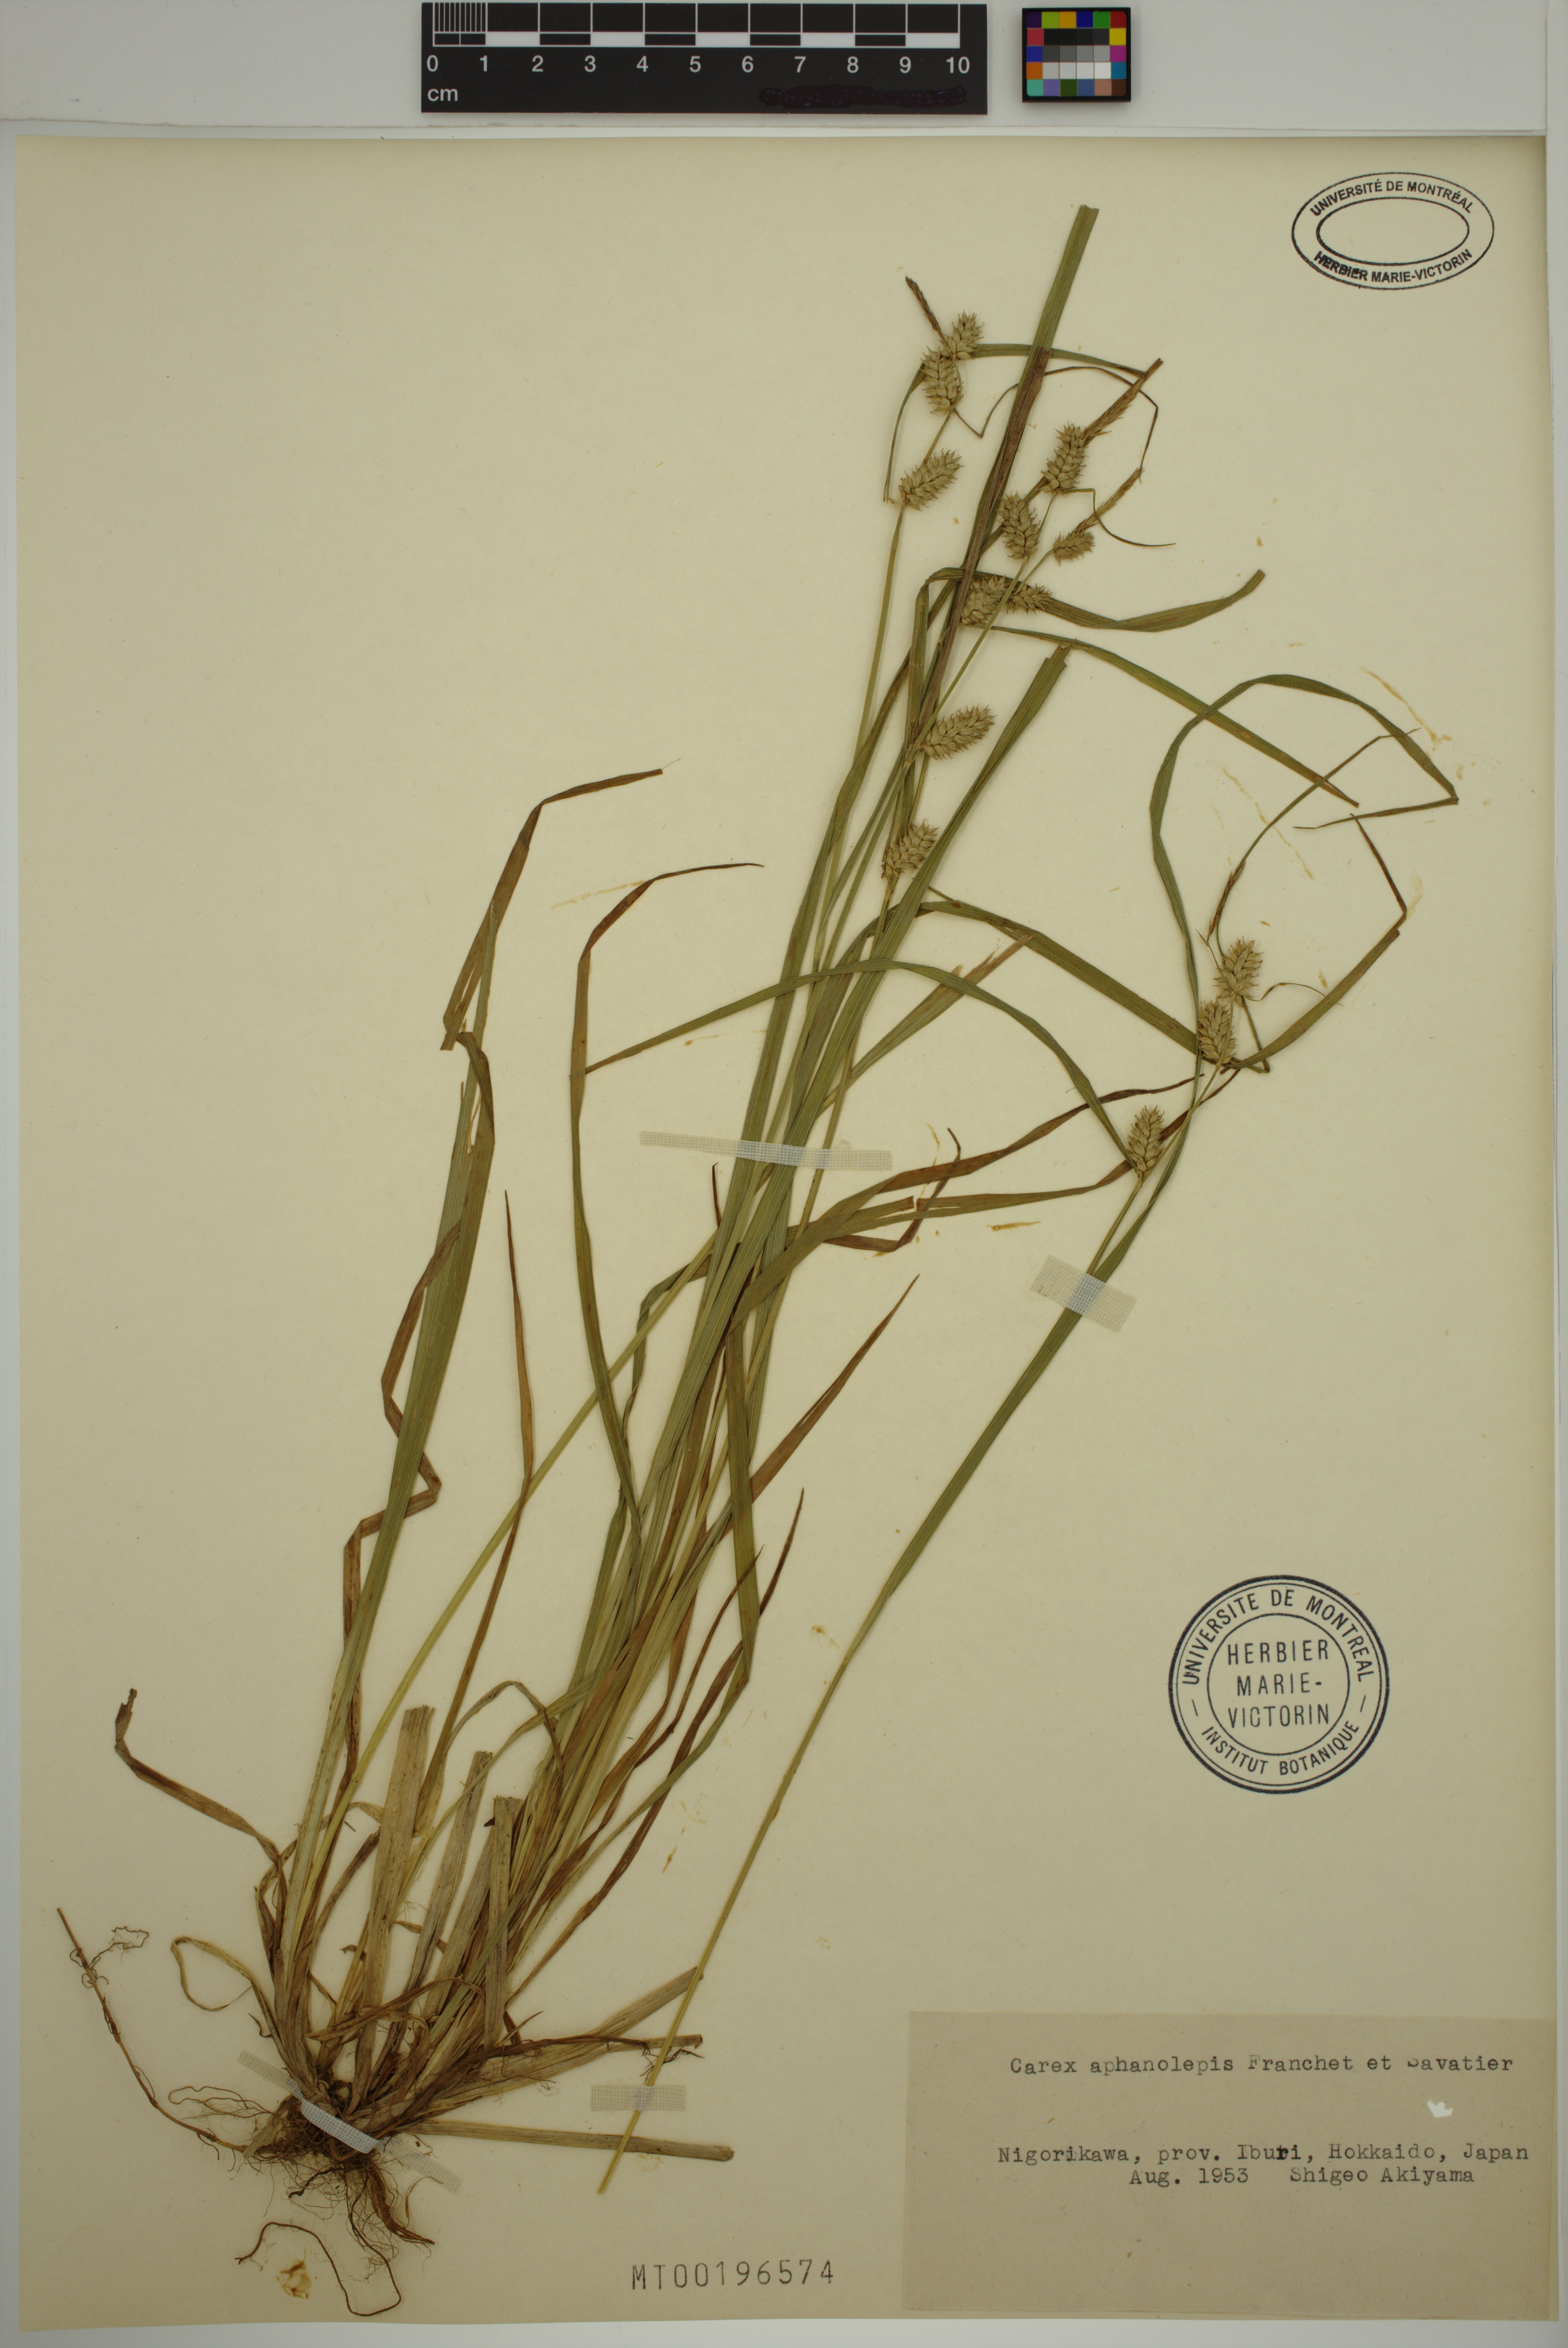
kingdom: Plantae
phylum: Tracheophyta
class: Liliopsida
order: Poales
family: Cyperaceae
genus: Carex
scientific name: Carex aphanolepis
